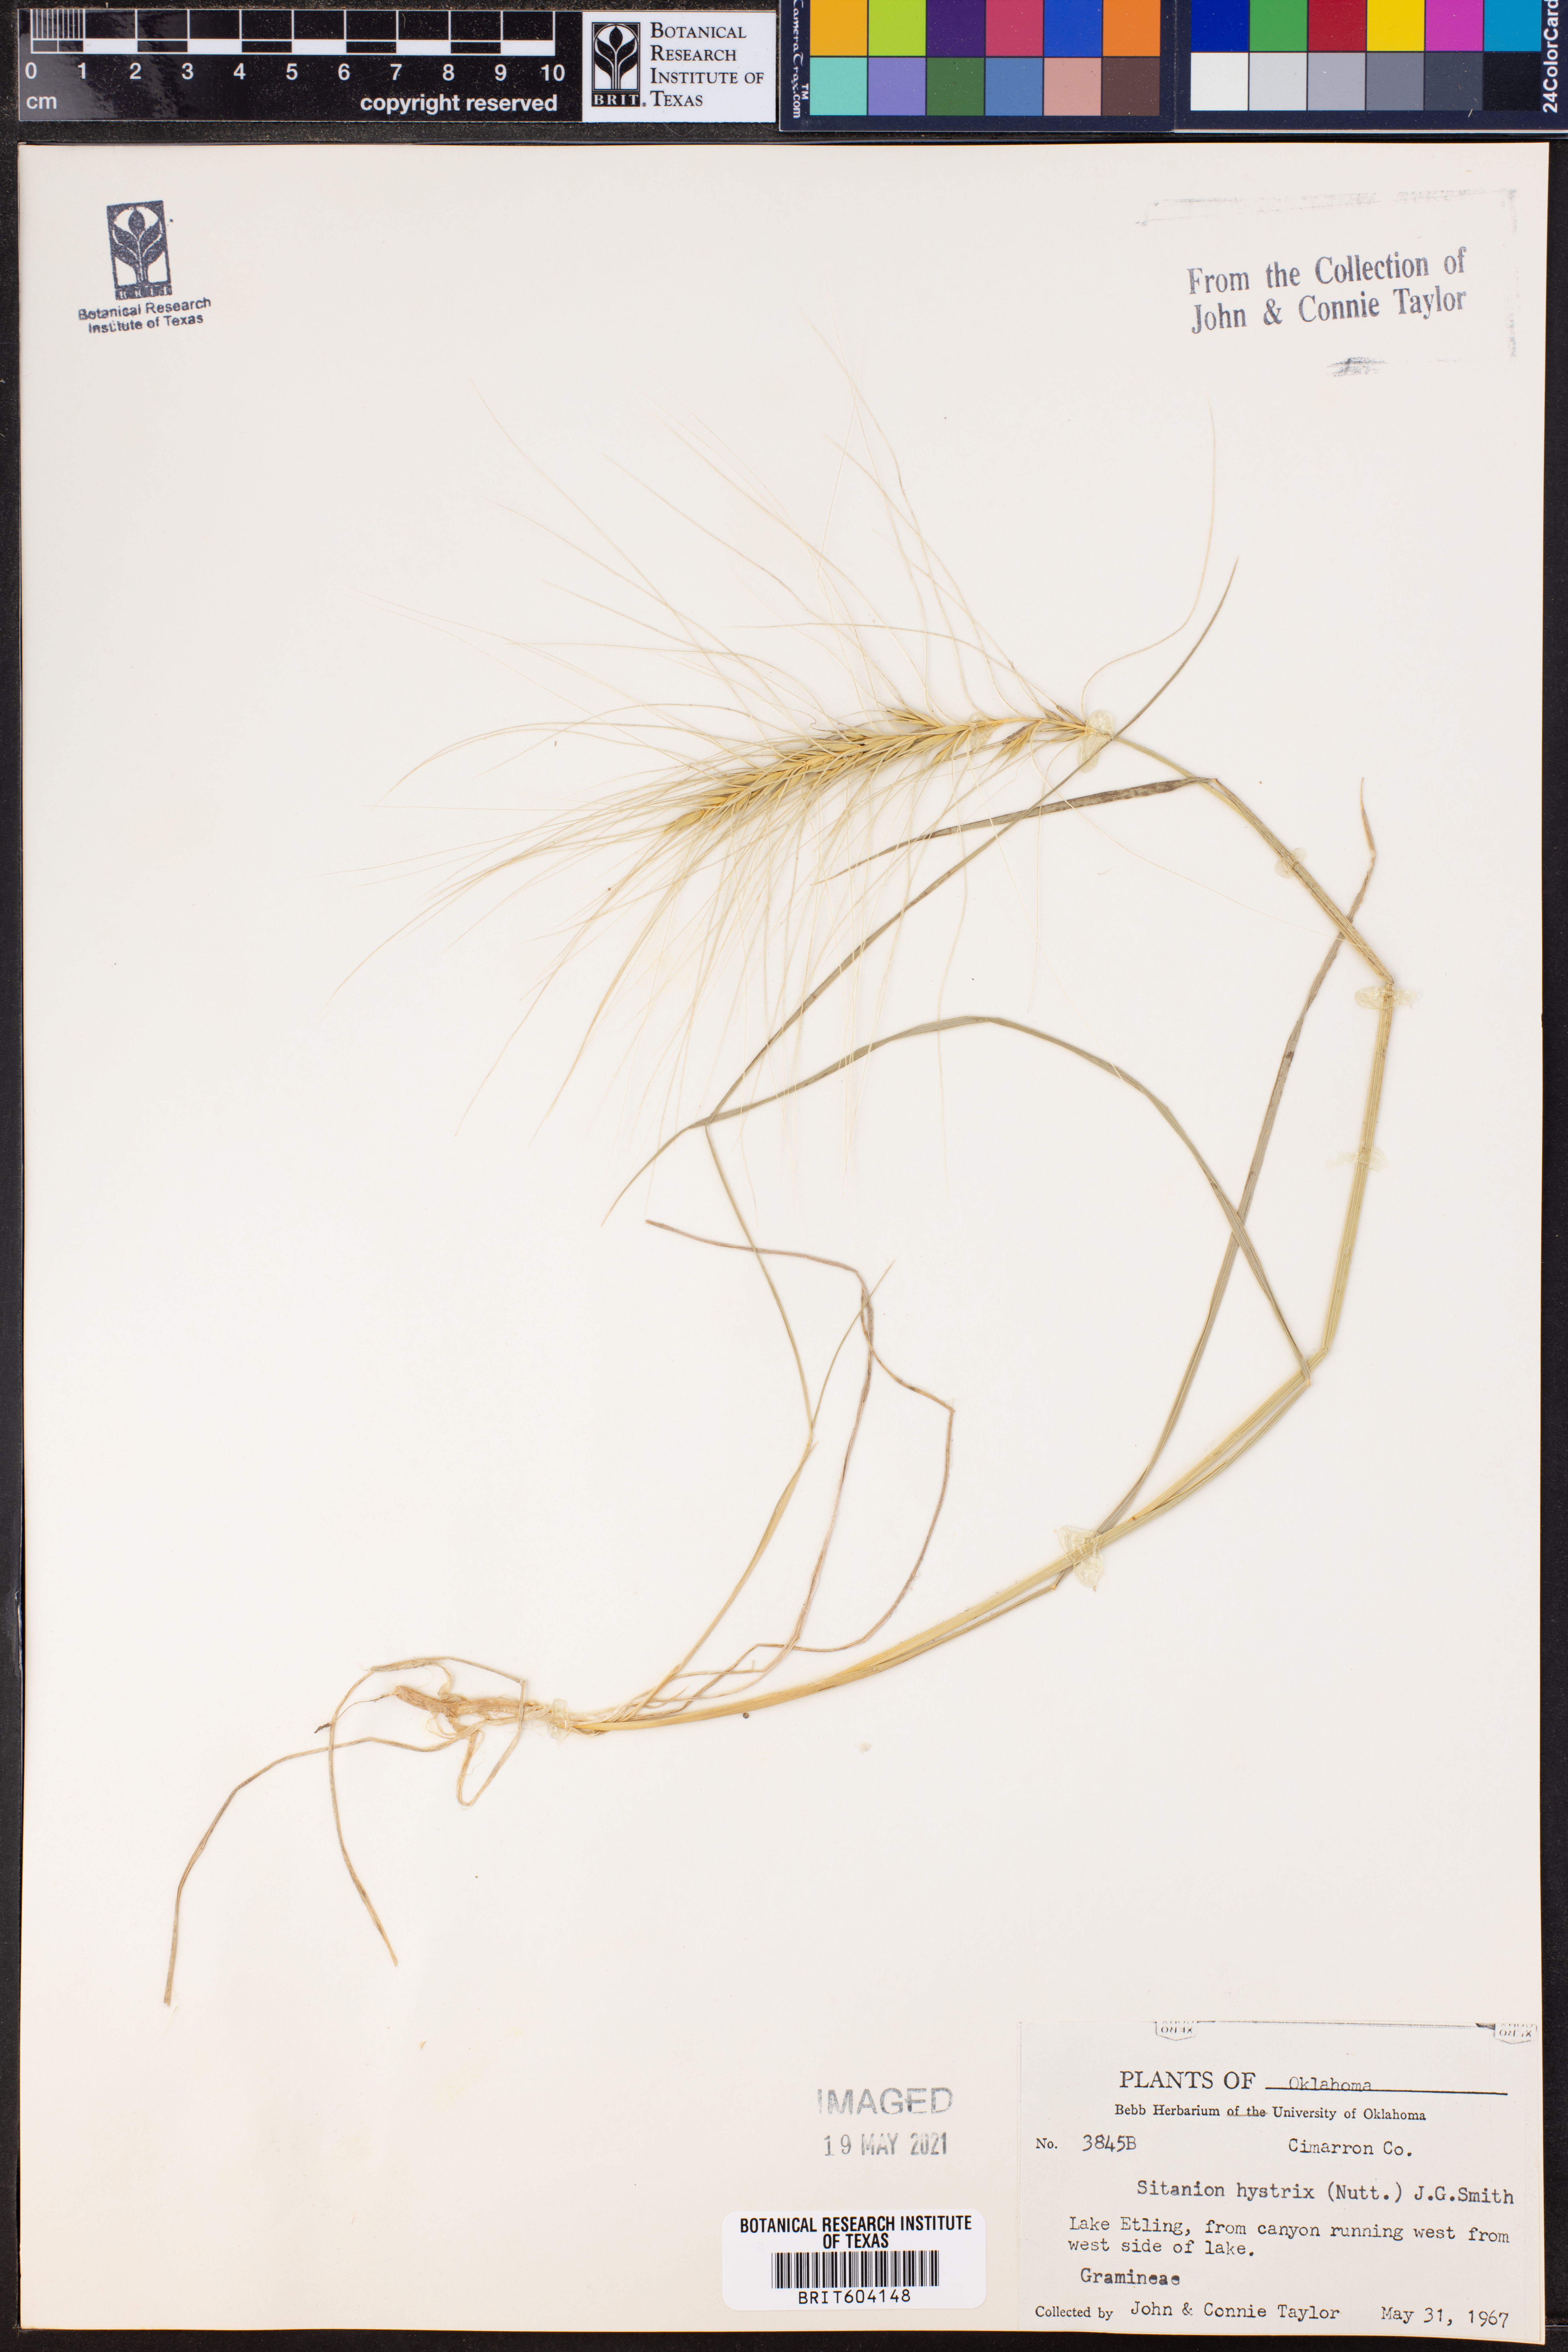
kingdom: Plantae
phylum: Tracheophyta
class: Liliopsida
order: Poales
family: Poaceae
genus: Elymus
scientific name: Elymus elymoides
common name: Bottlebrush squirreltail
